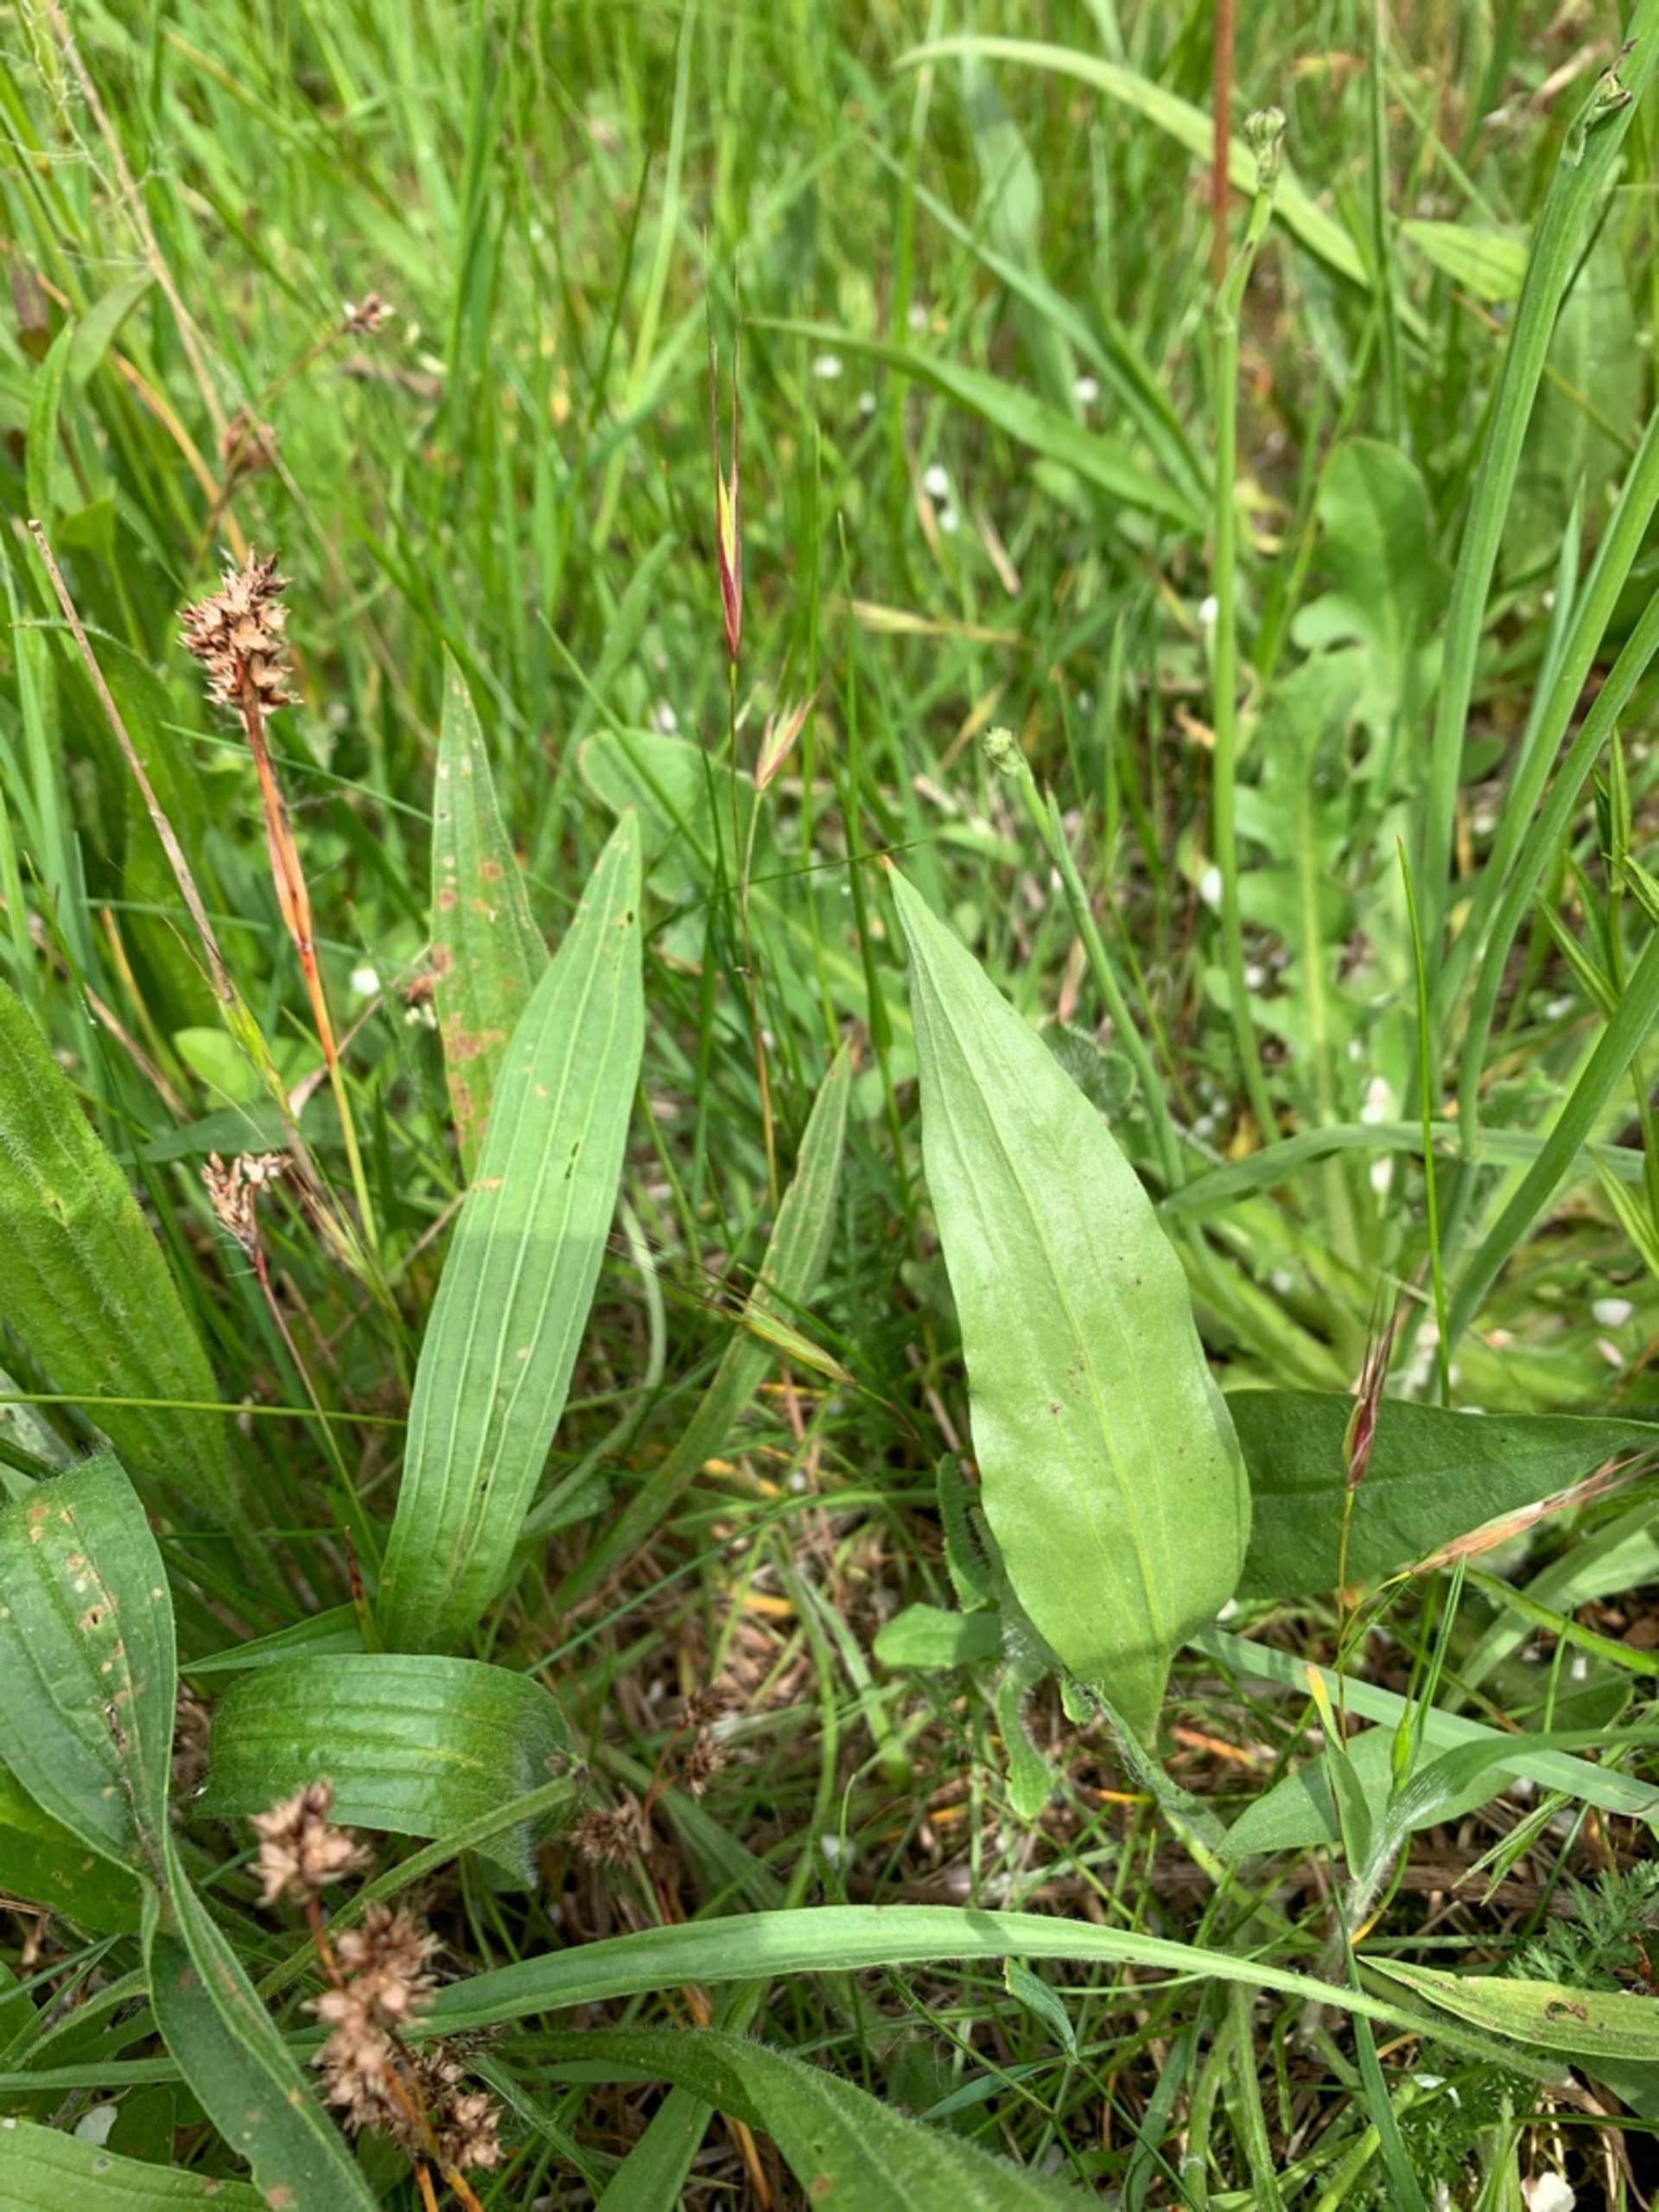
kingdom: Plantae
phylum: Tracheophyta
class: Magnoliopsida
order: Asterales
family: Asteraceae
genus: Scorzonera
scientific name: Scorzonera humilis
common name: Lav skorsoner
